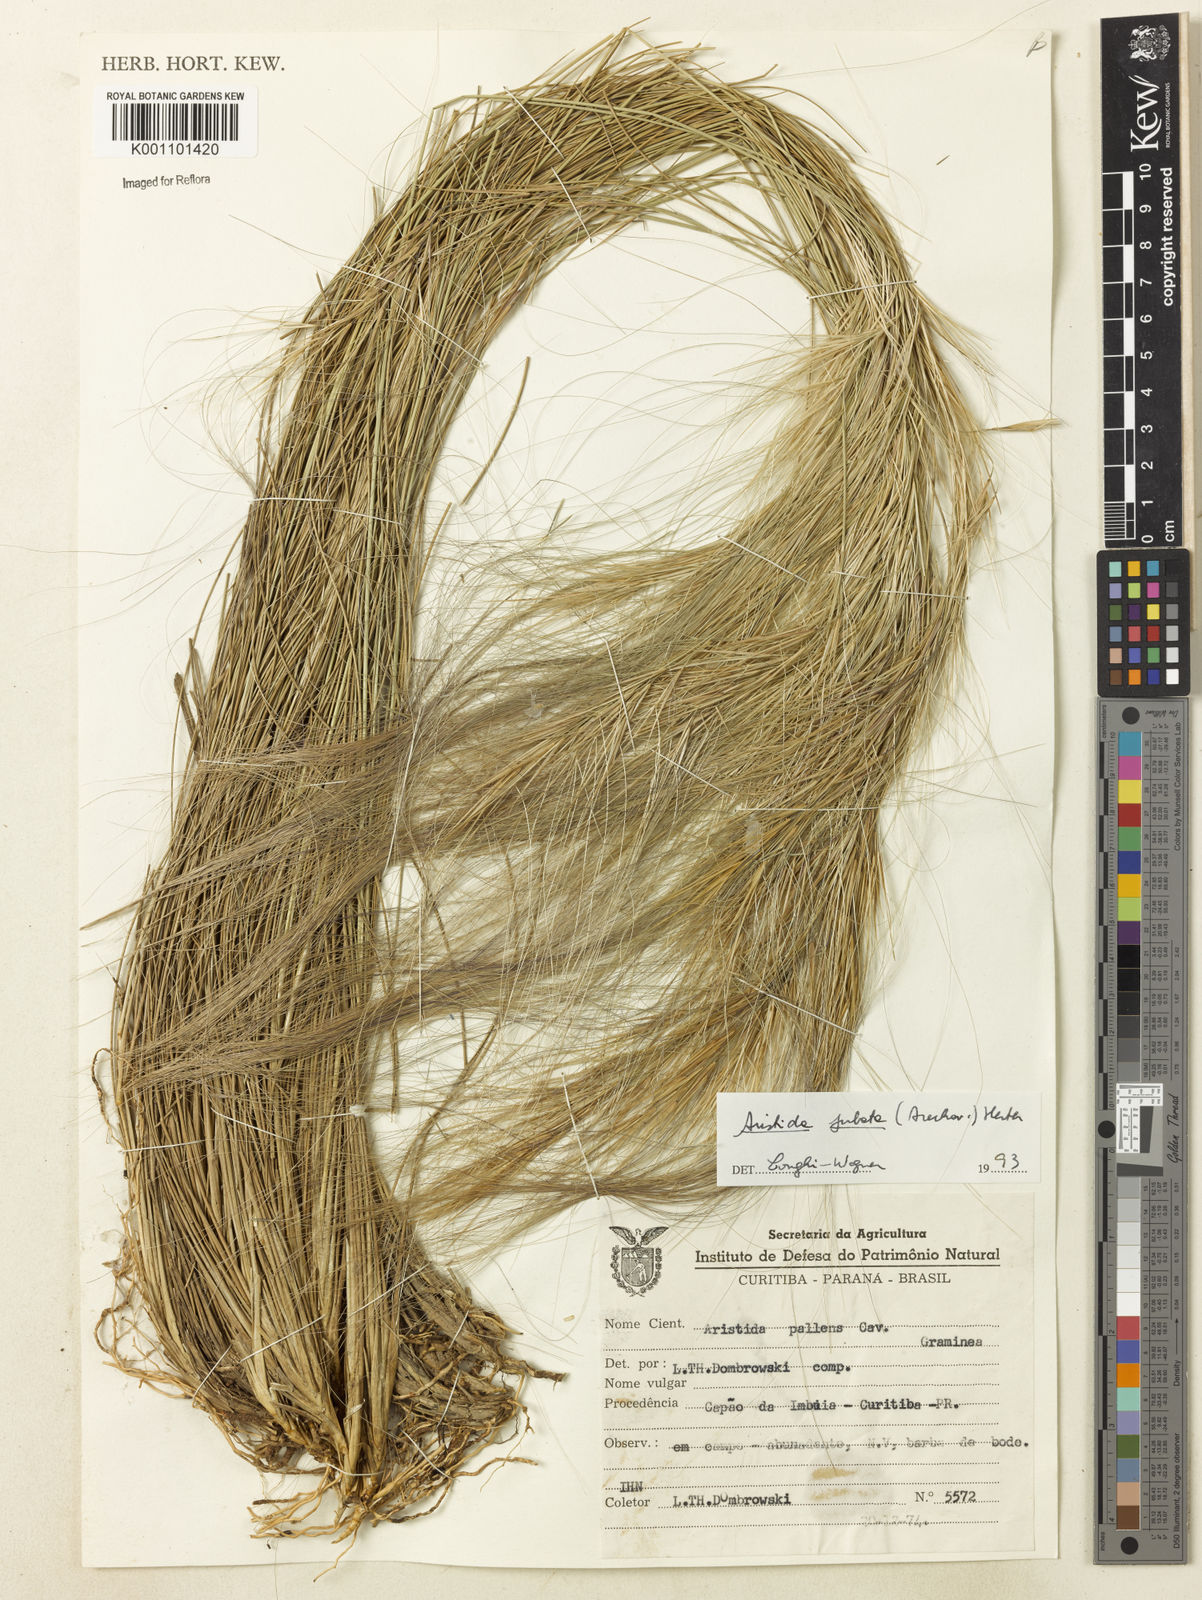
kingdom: Plantae
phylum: Tracheophyta
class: Liliopsida
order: Poales
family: Poaceae
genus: Aristida
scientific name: Aristida jubata
